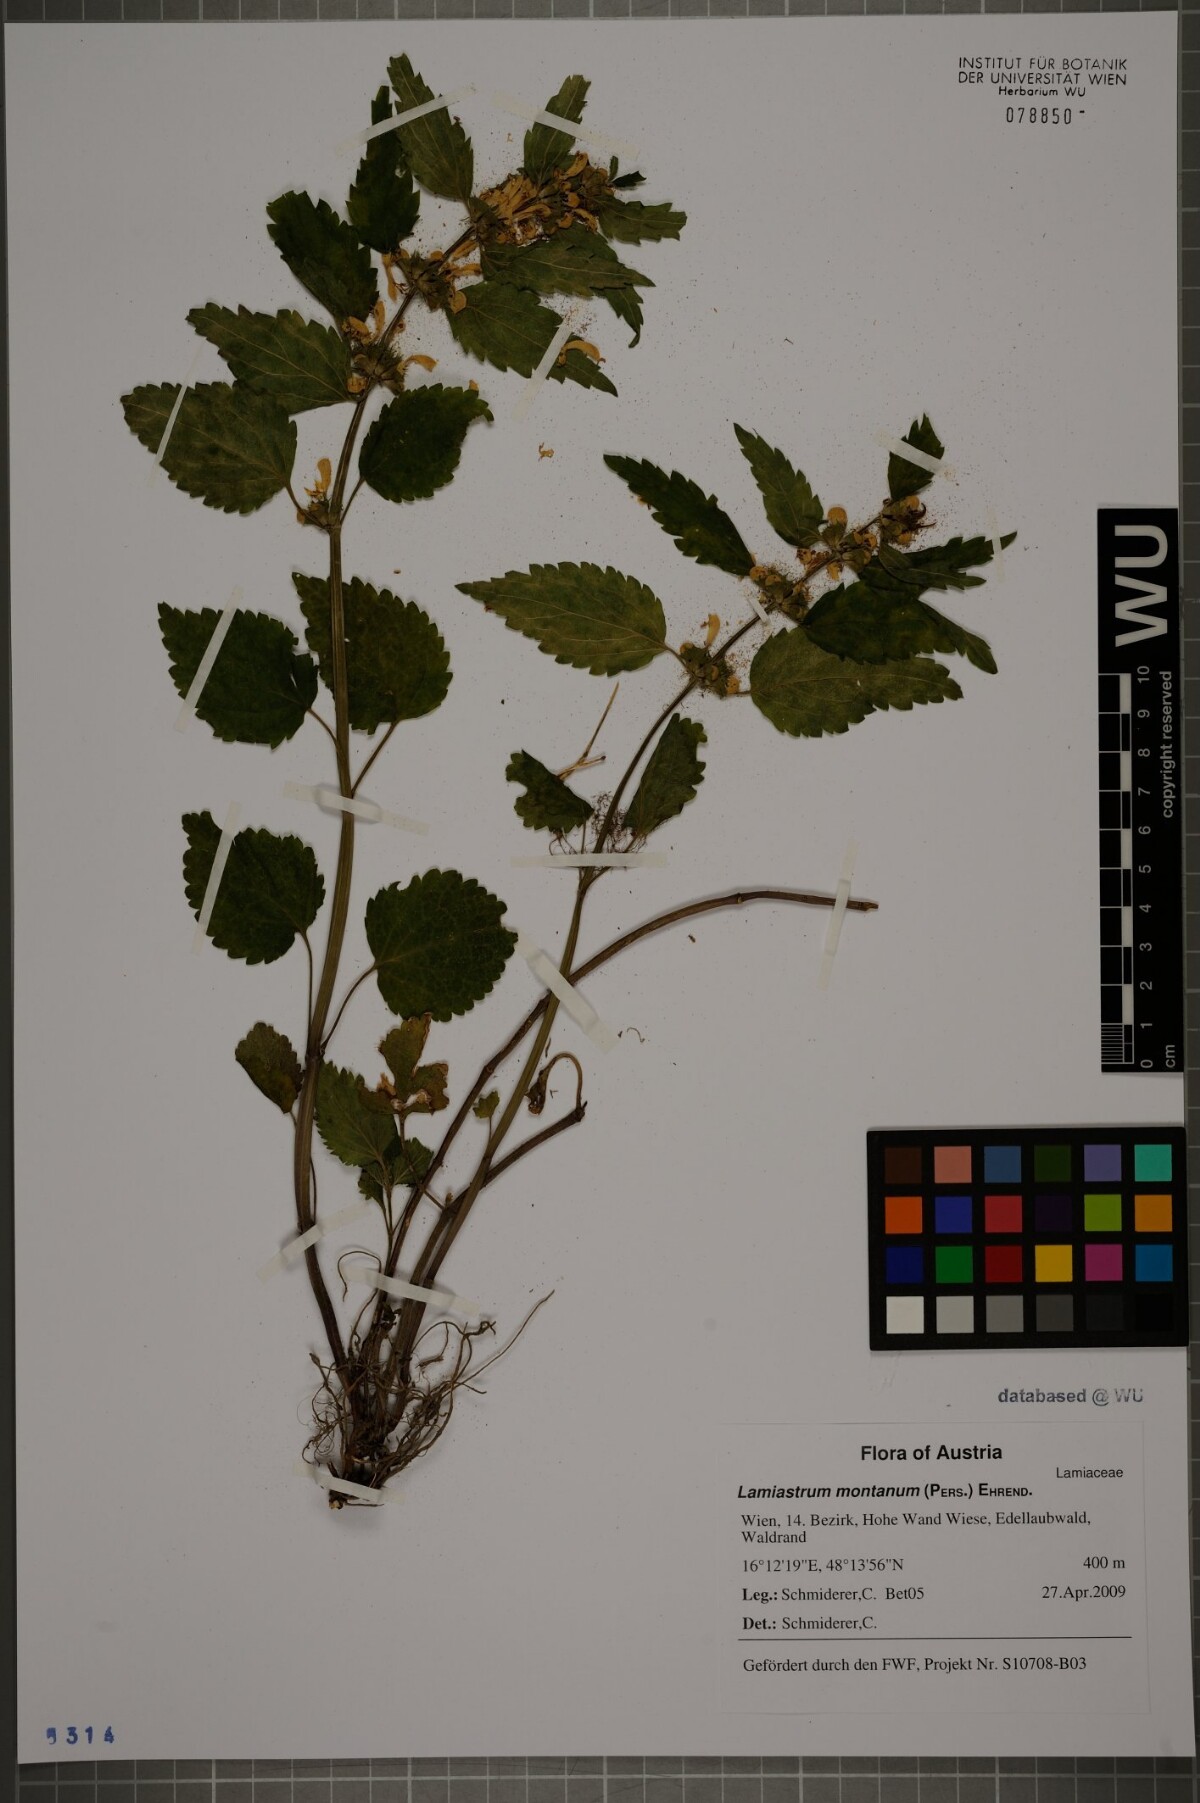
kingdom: Plantae
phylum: Tracheophyta
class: Magnoliopsida
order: Lamiales
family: Lamiaceae
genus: Lamium
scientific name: Lamium galeobdolon
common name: Yellow archangel
